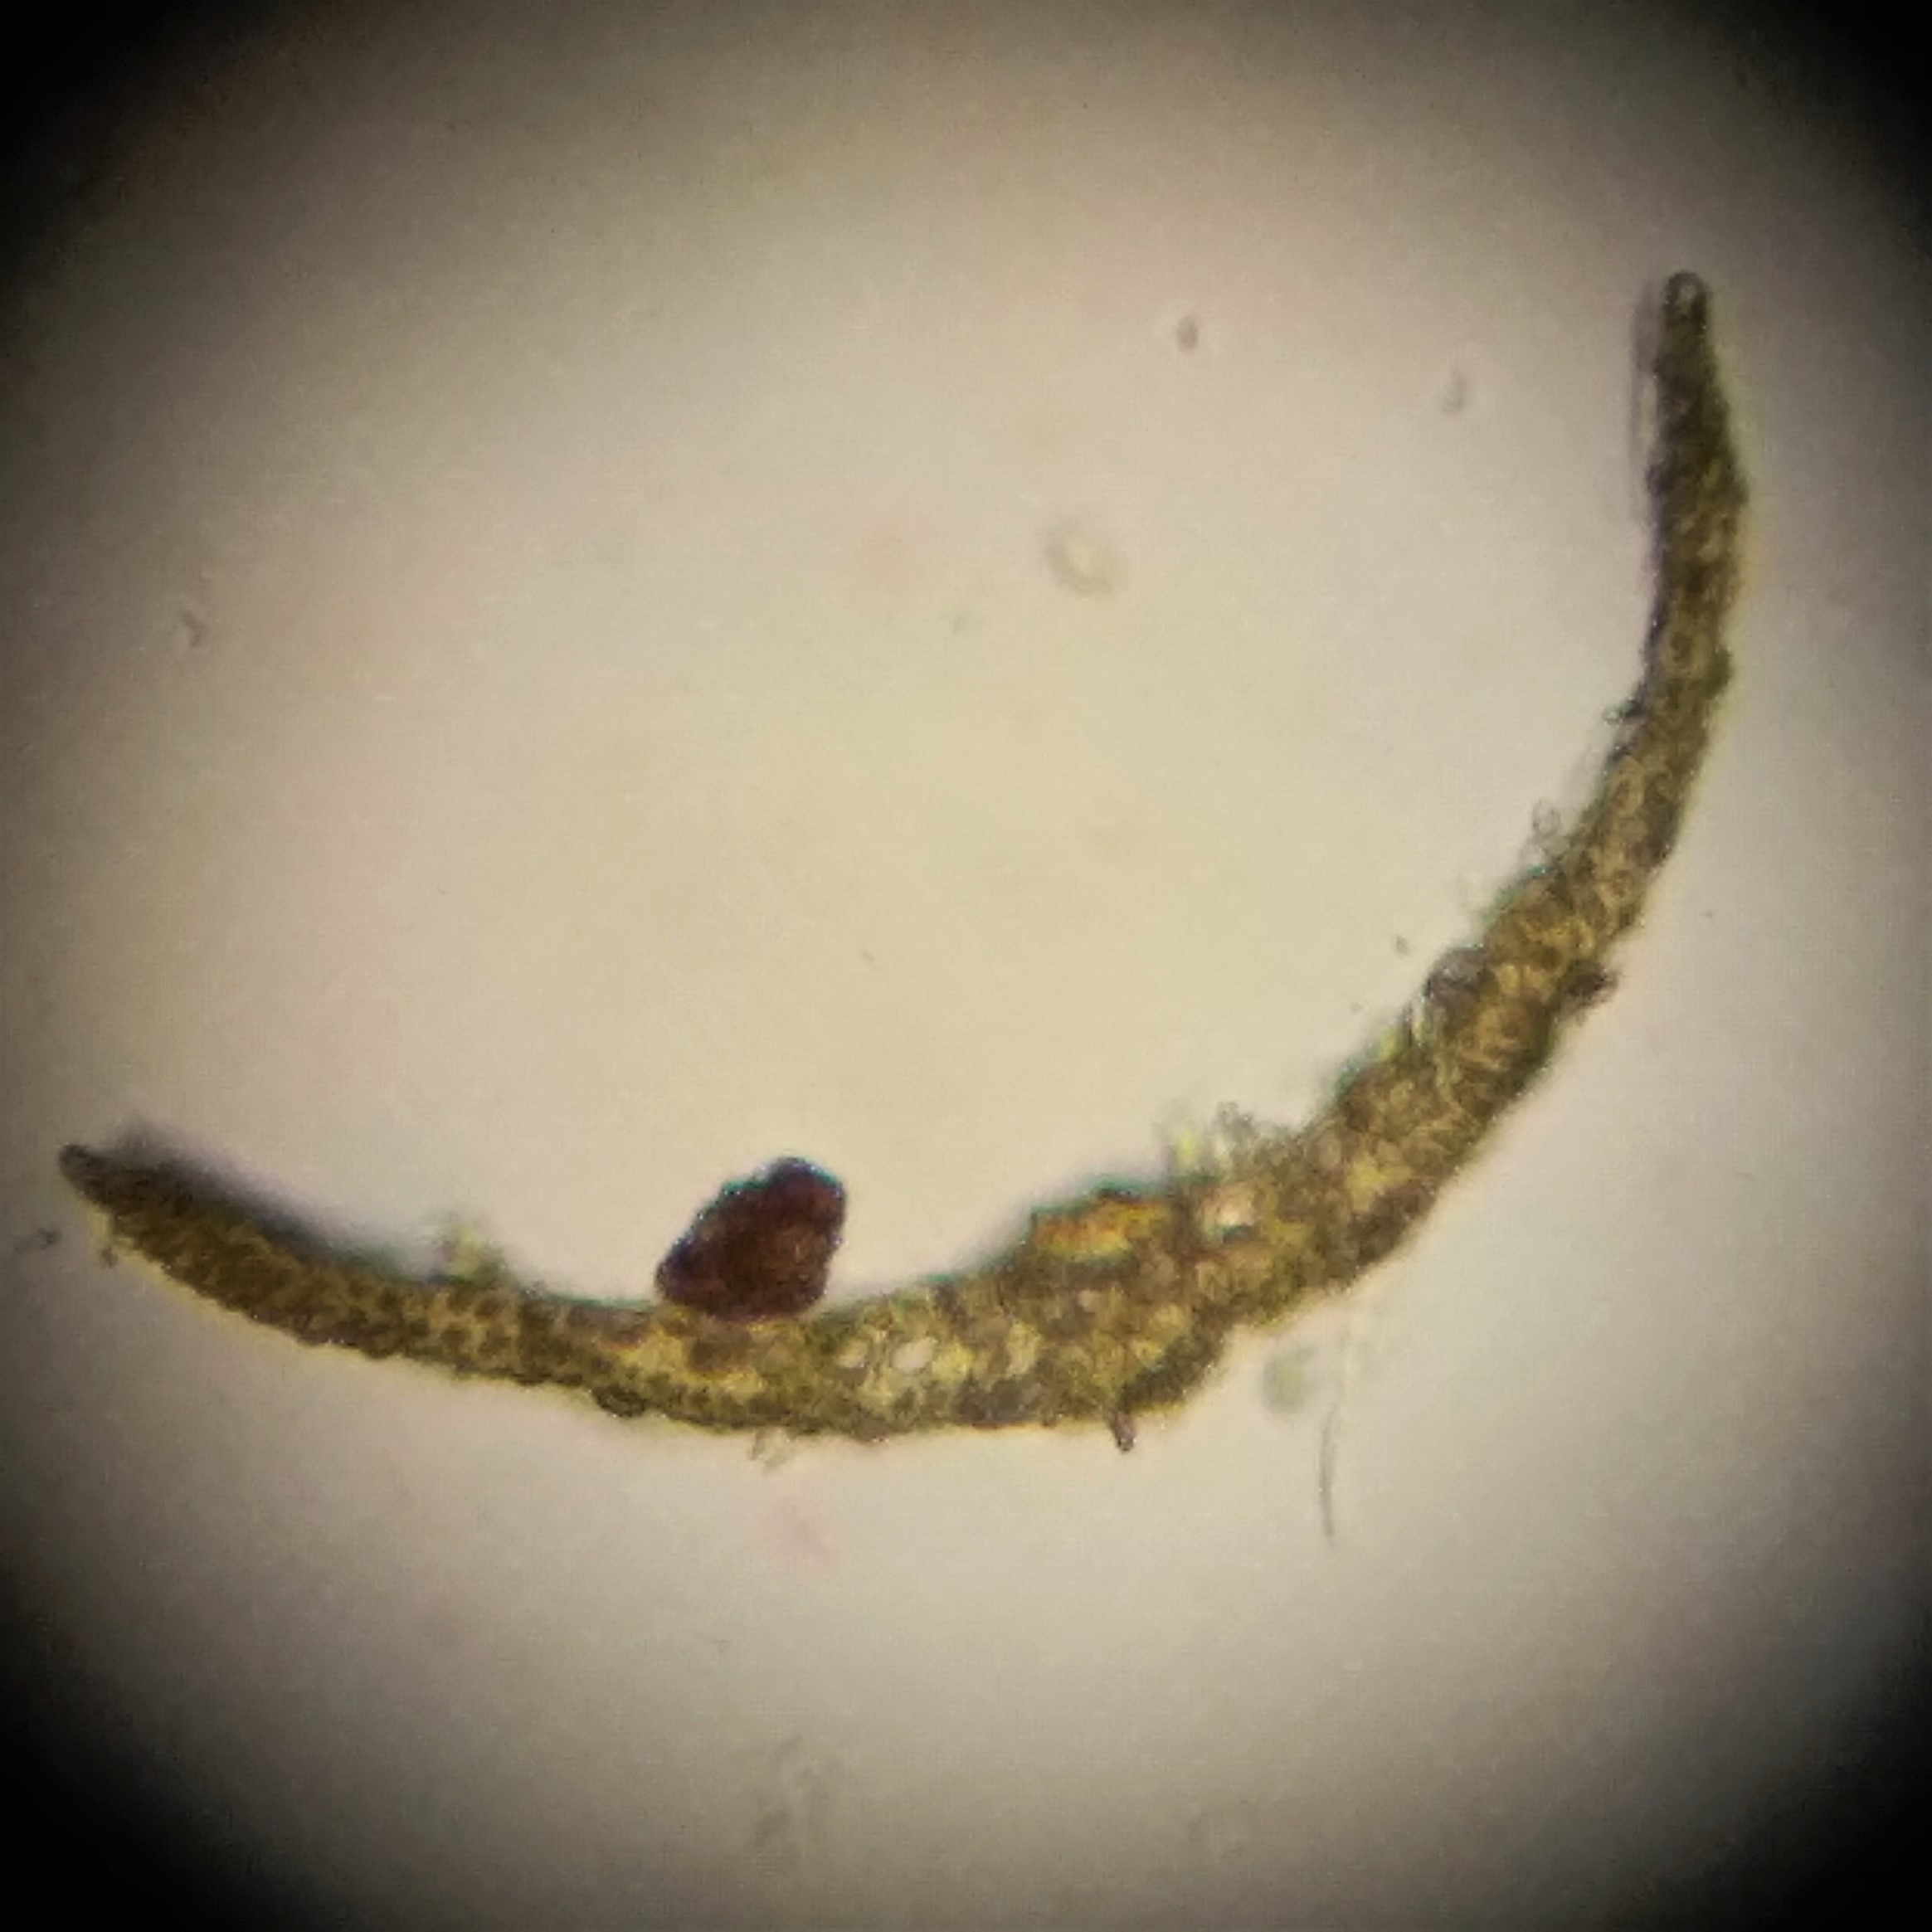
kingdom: Plantae
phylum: Bryophyta
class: Bryopsida
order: Dicranales
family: Ditrichaceae
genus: Pleuridium
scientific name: Pleuridium acuminatum
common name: Siddende sylbladsmos
